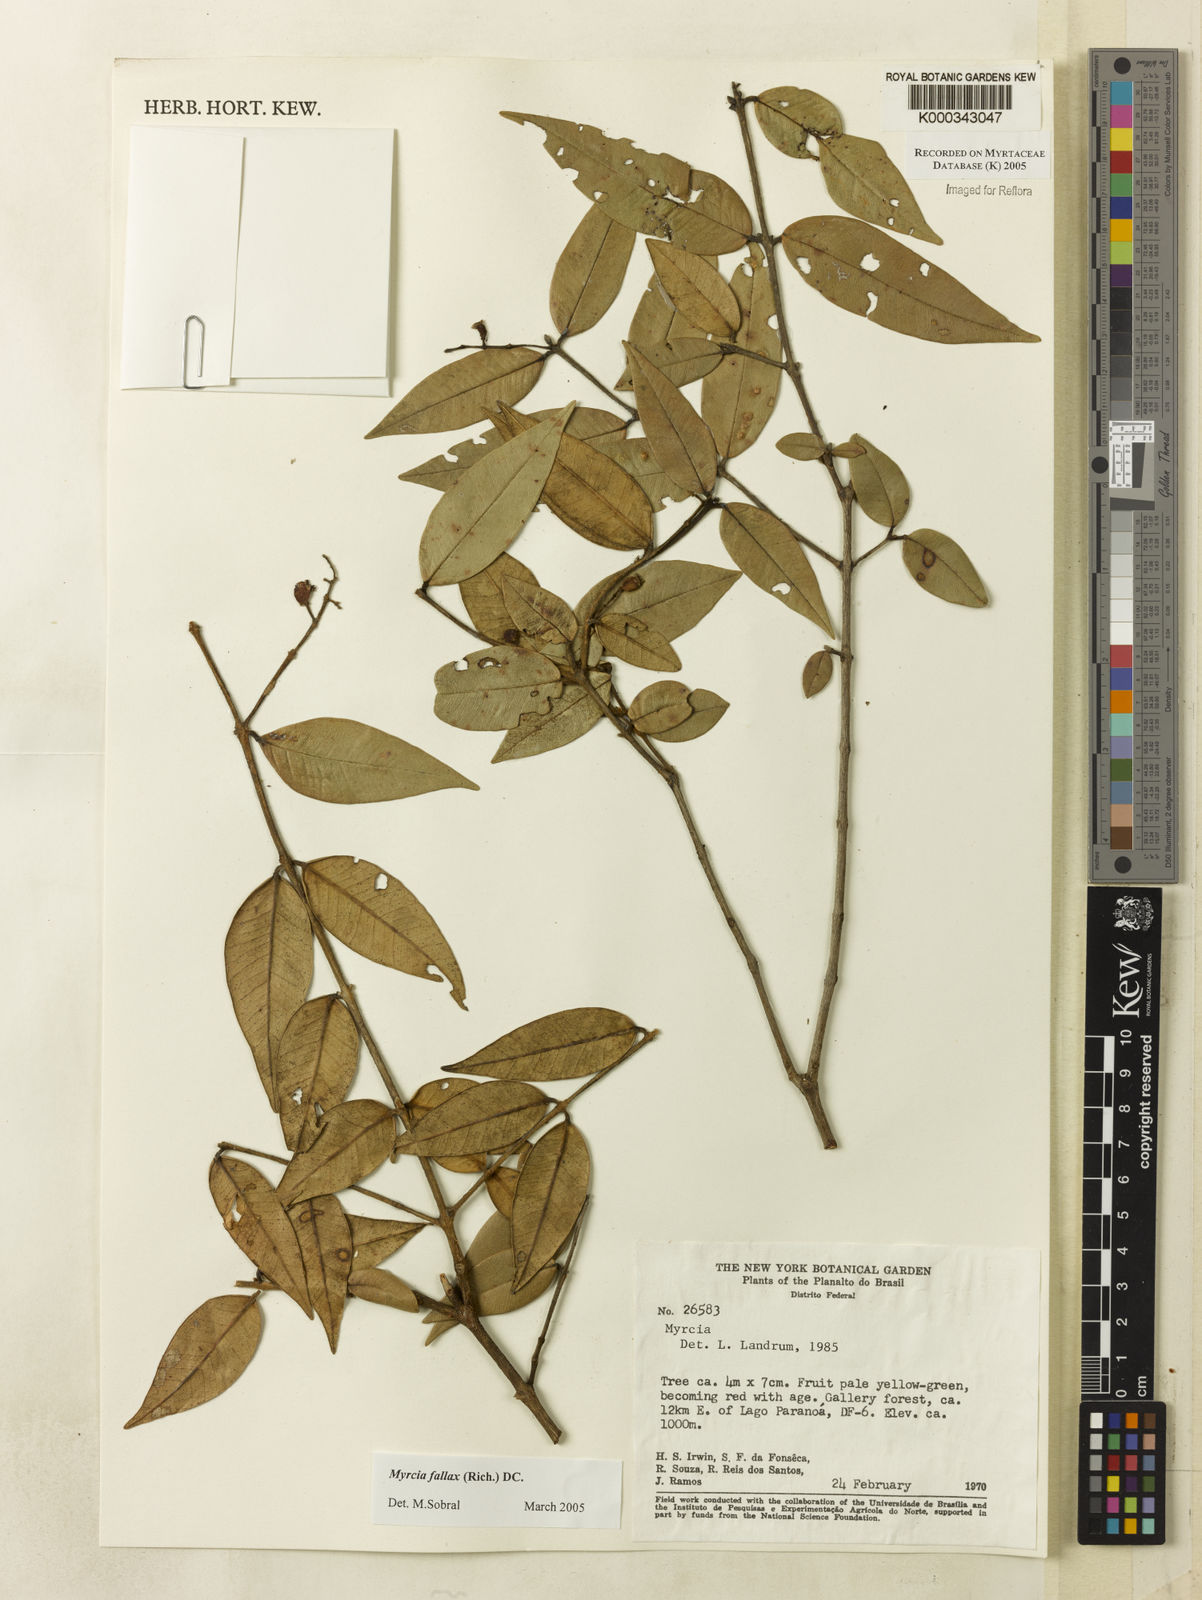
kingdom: Plantae
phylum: Tracheophyta
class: Magnoliopsida
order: Myrtales
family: Myrtaceae
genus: Myrcia
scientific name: Myrcia splendens
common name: Surinam cherry
